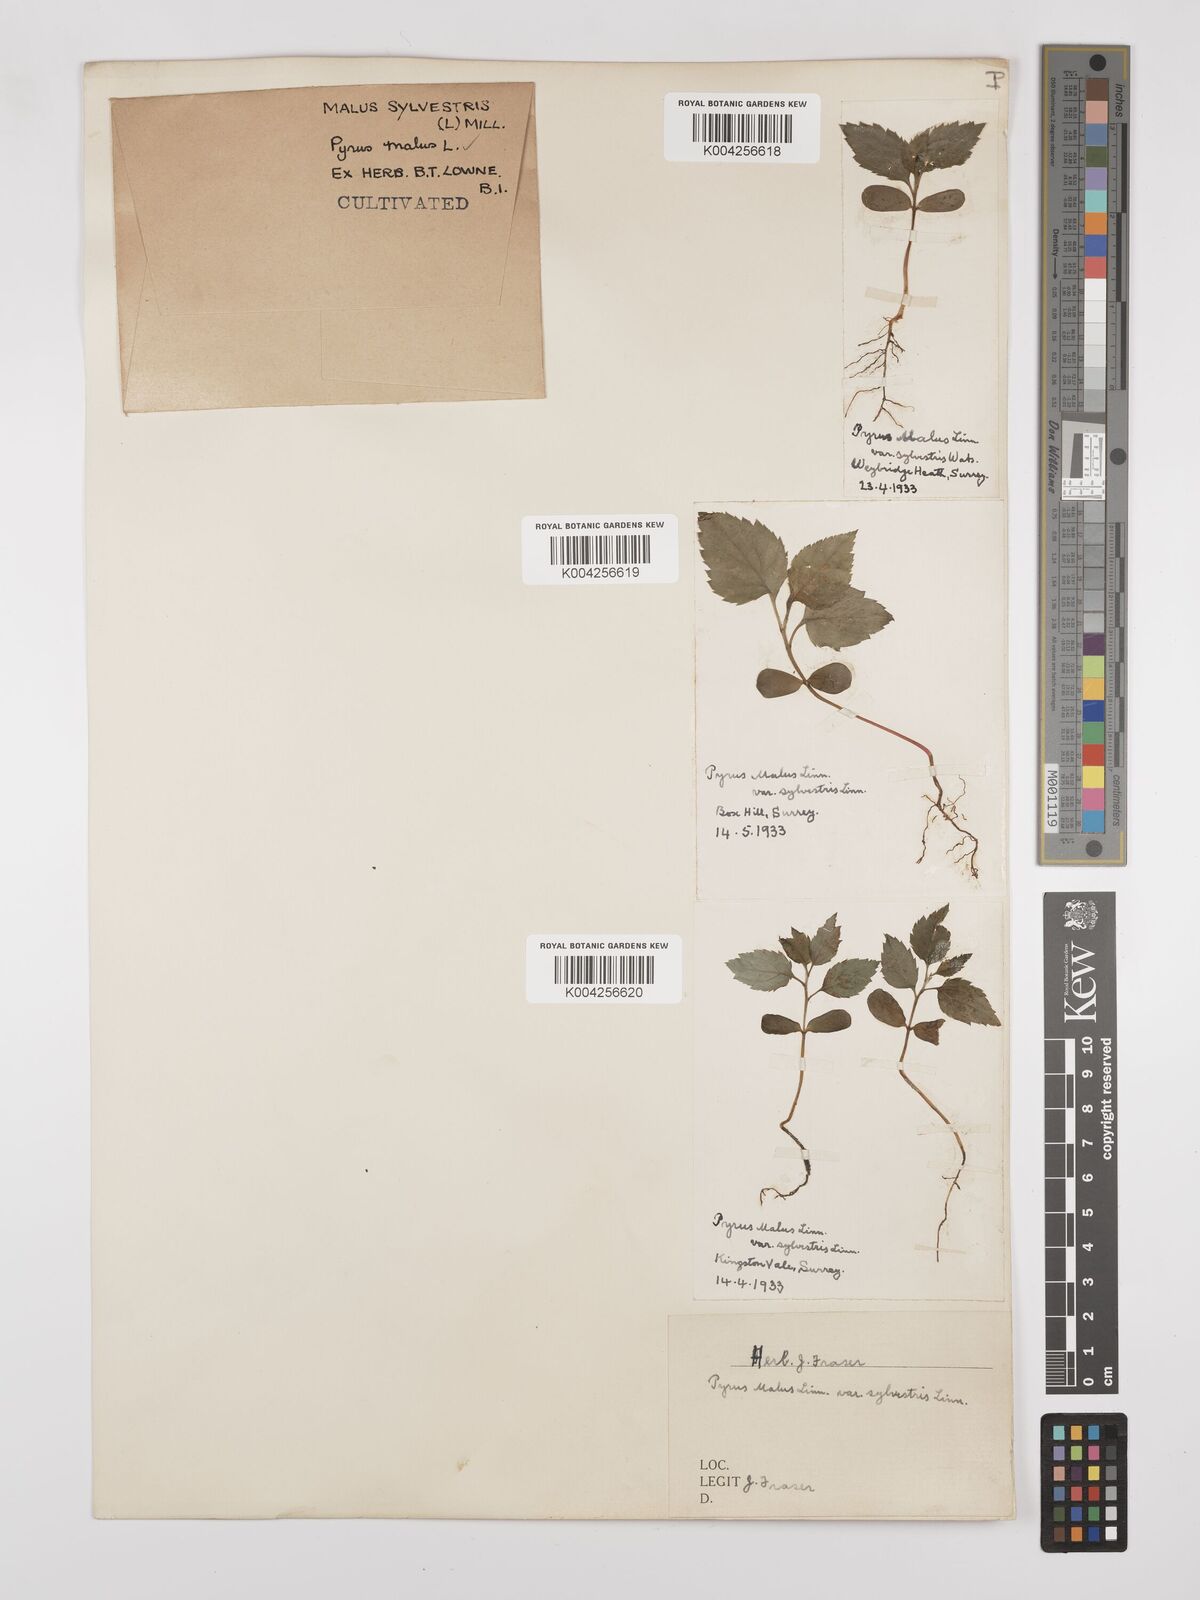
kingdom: Plantae
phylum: Tracheophyta
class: Magnoliopsida
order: Rosales
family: Rosaceae
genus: Malus
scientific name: Malus sylvestris
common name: Crab apple
